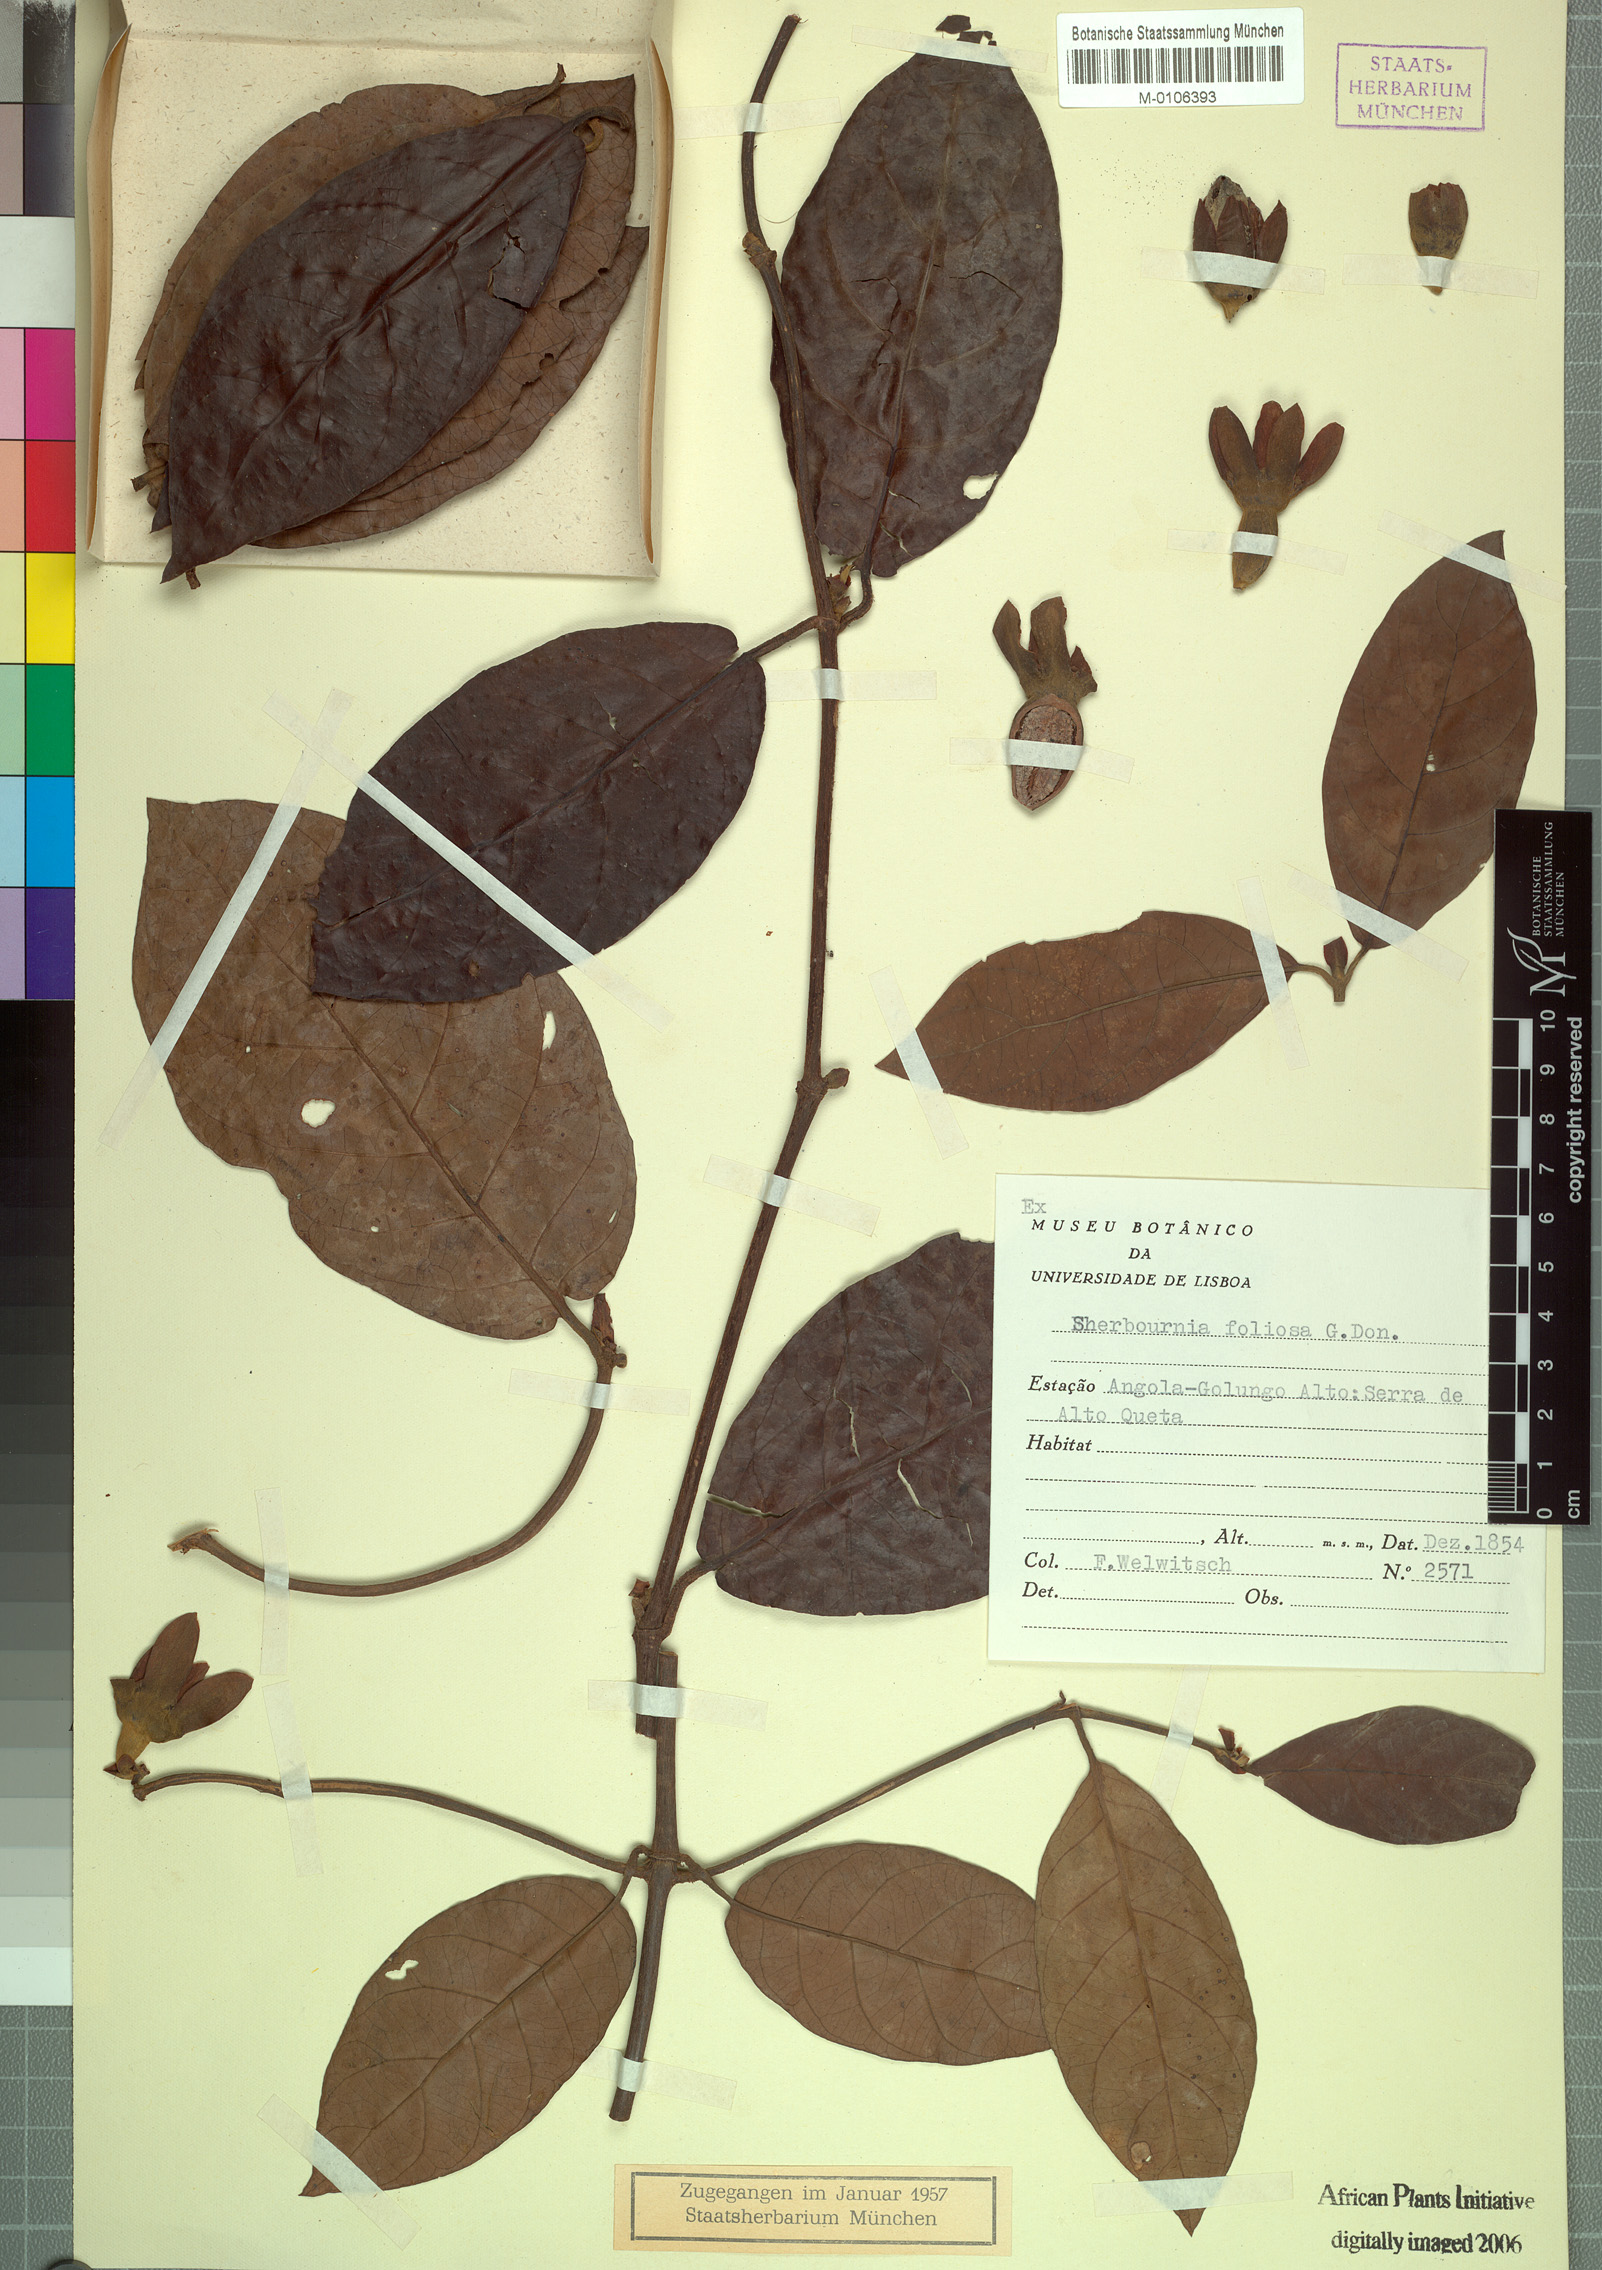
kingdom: Plantae
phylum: Tracheophyta
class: Magnoliopsida
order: Gentianales
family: Rubiaceae
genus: Sherbournia
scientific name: Sherbournia bignoniiflora
